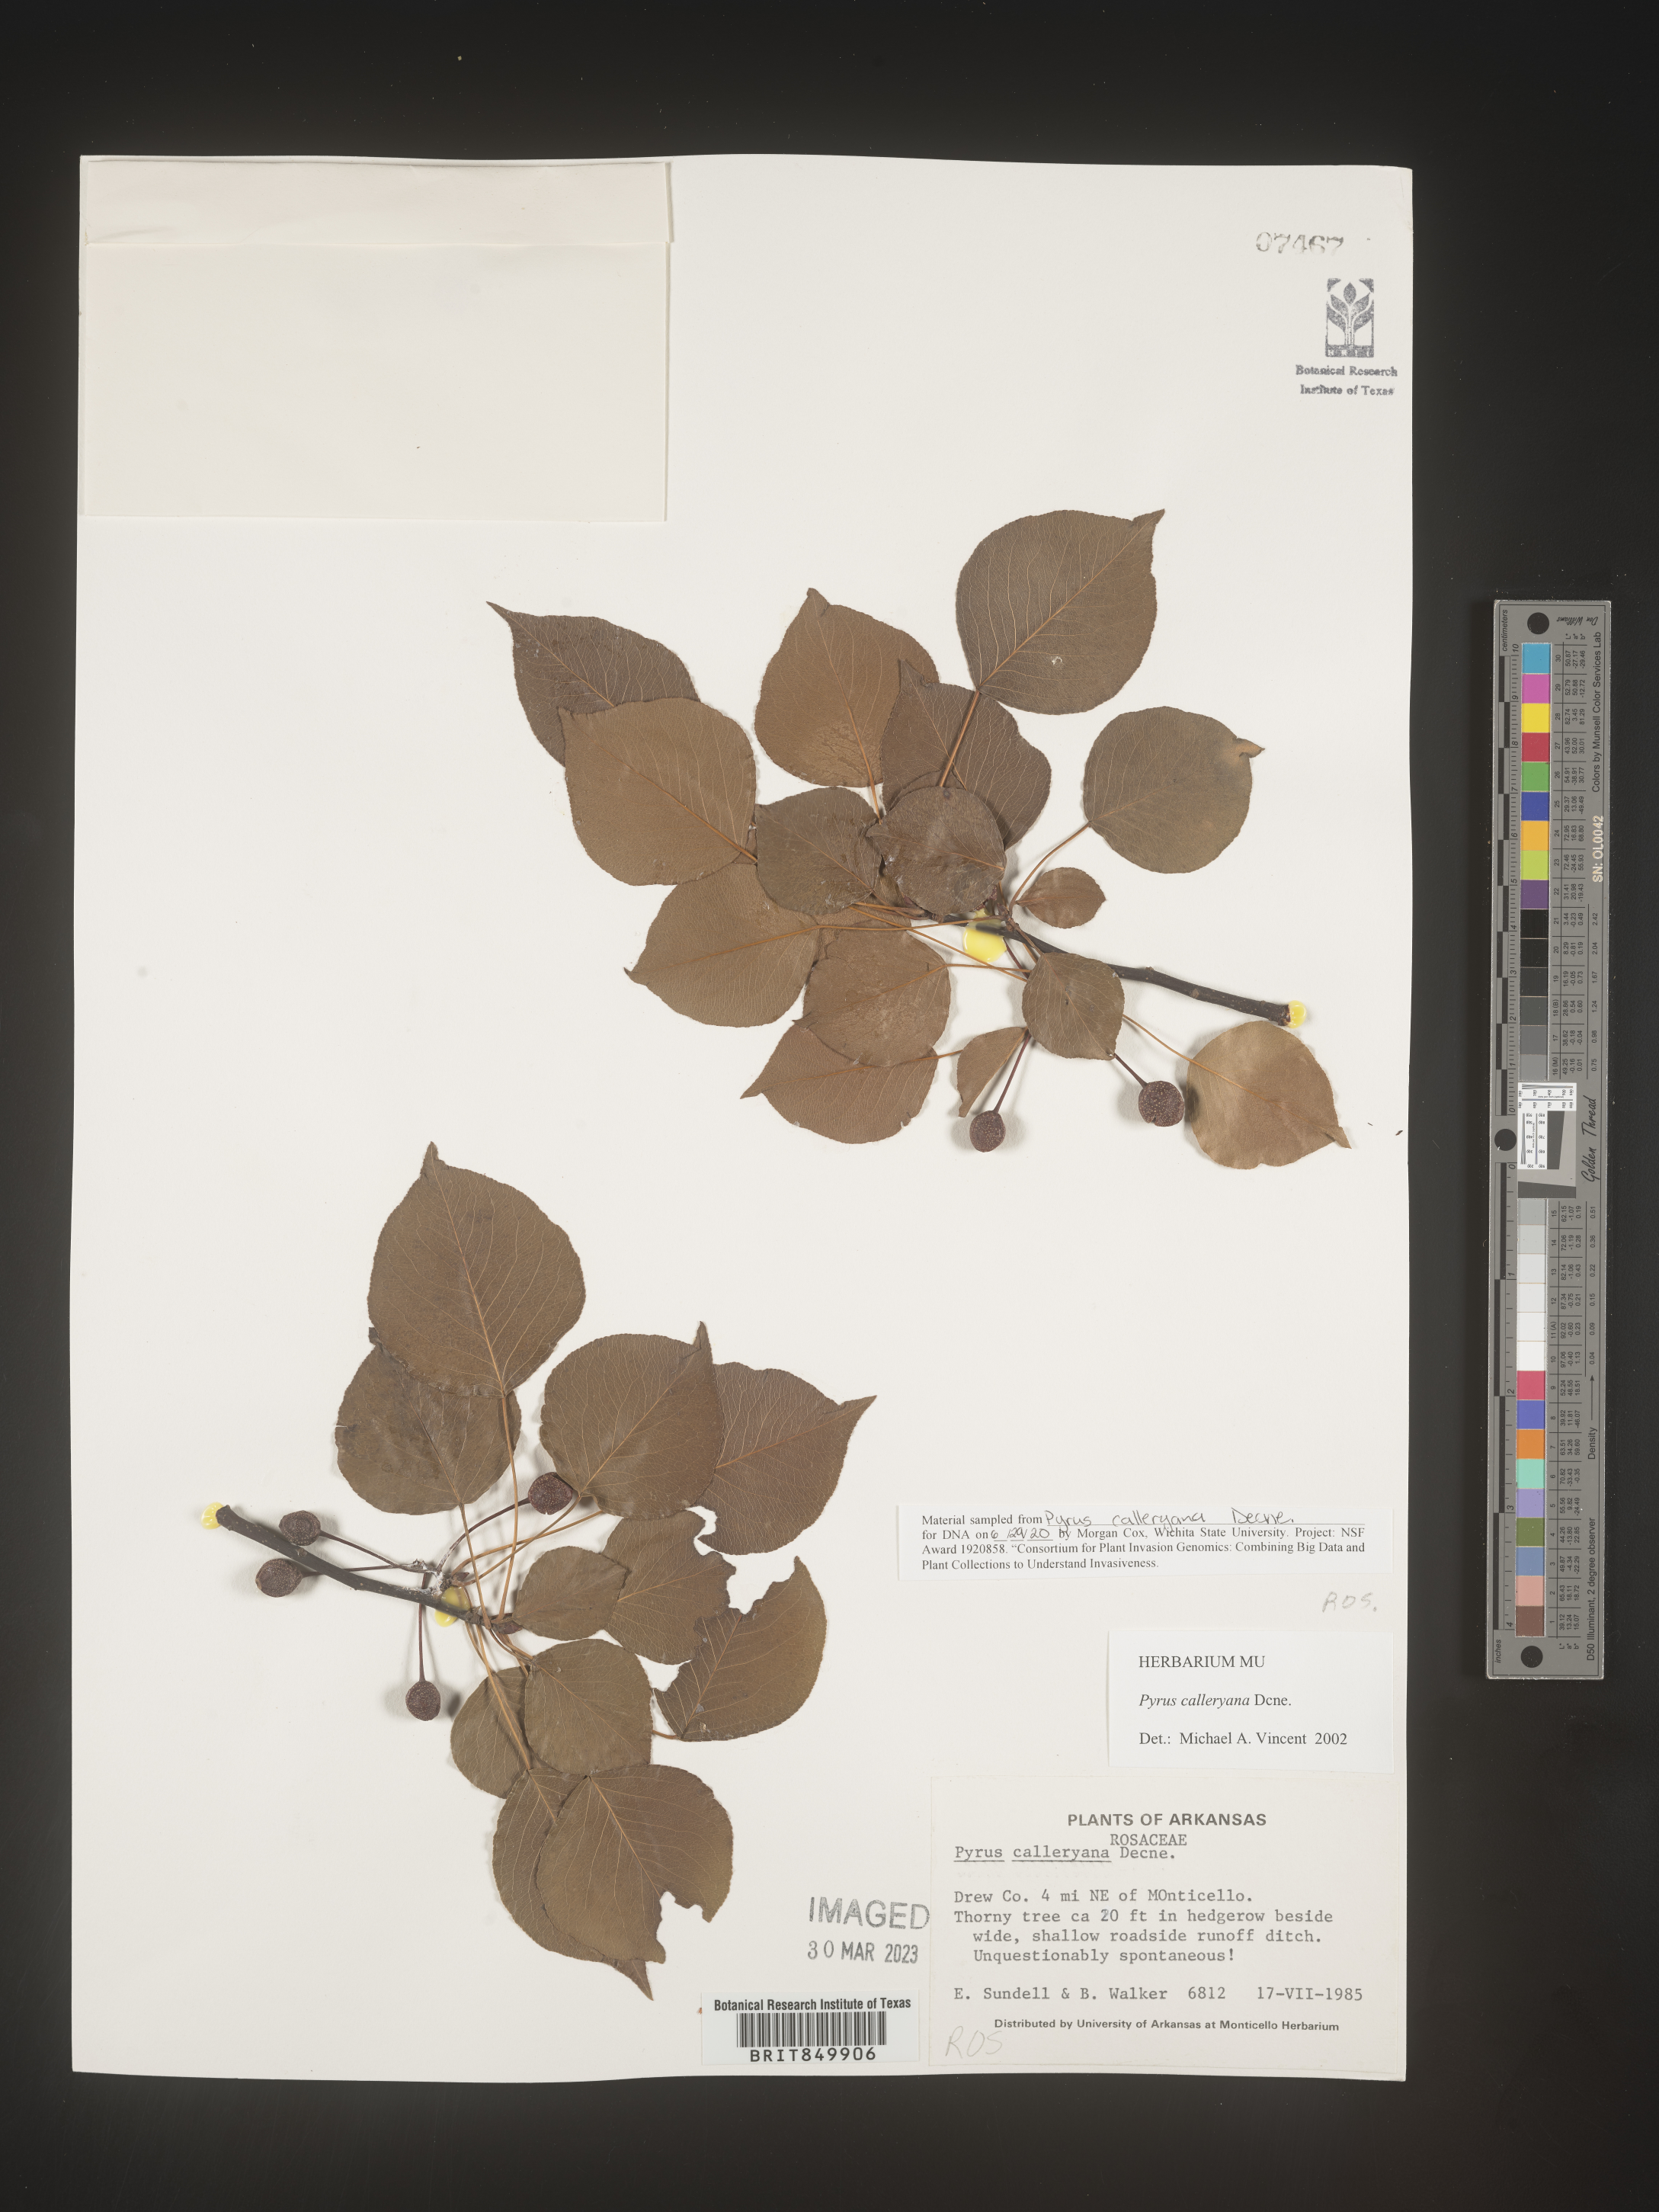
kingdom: Plantae
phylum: Tracheophyta
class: Magnoliopsida
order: Rosales
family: Rosaceae
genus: Pyrus
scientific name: Pyrus
